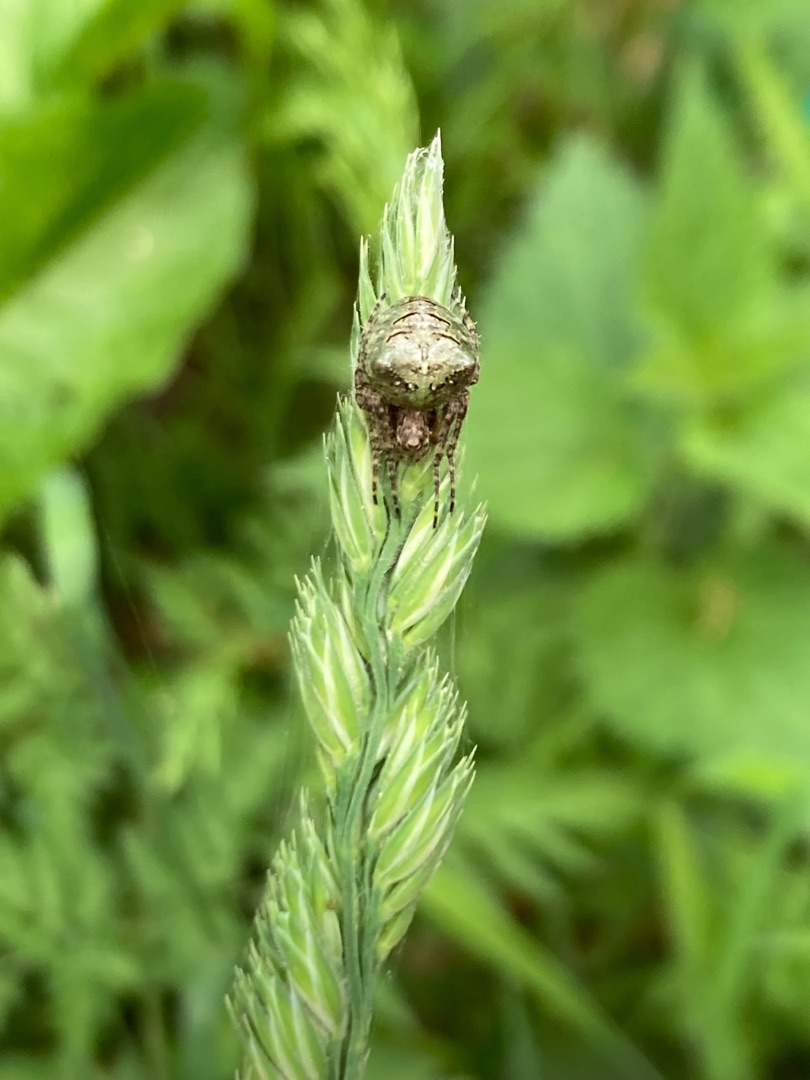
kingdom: Animalia
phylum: Arthropoda
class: Arachnida
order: Araneae
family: Araneidae
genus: Gibbaranea
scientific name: Gibbaranea gibbosa
